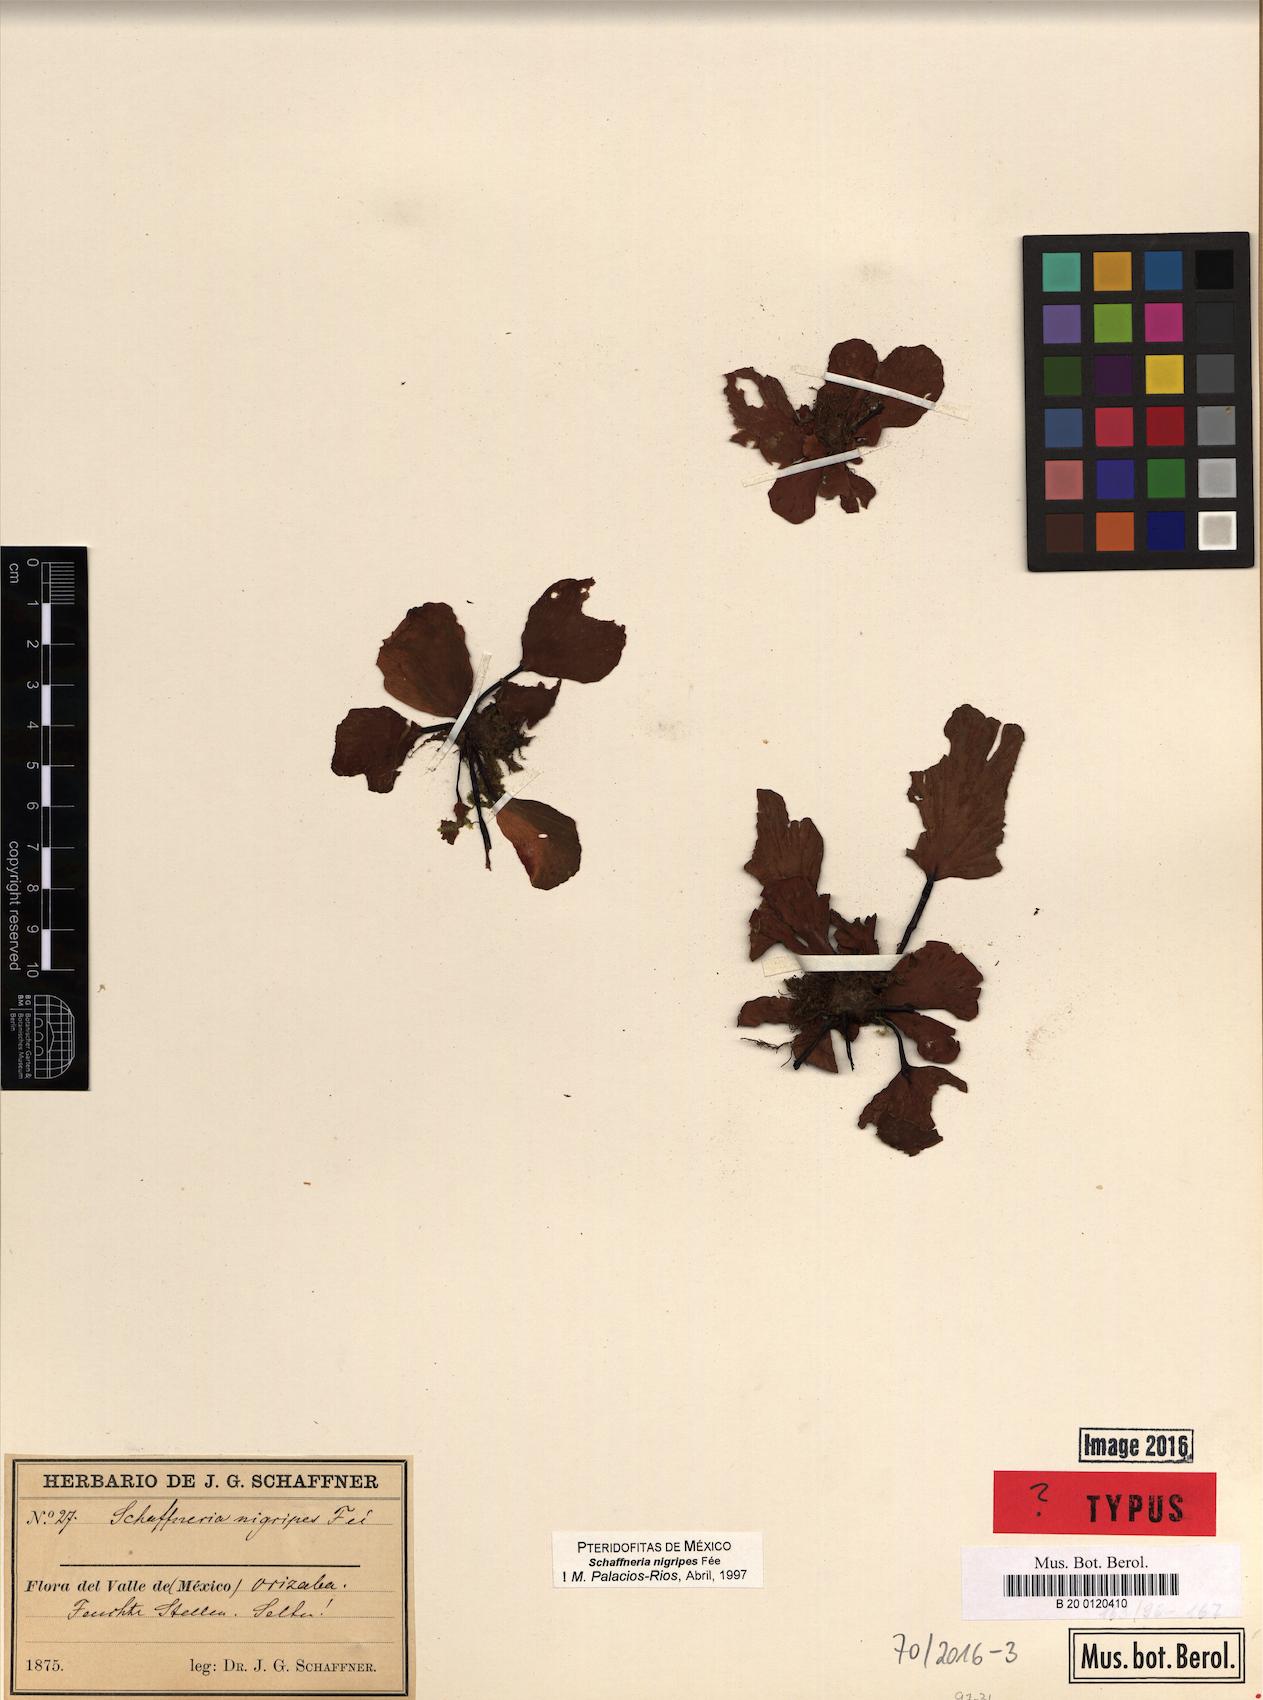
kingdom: Plantae
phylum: Tracheophyta
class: Polypodiopsida
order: Polypodiales
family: Aspleniaceae
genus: Asplenium
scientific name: Asplenium nigripes
